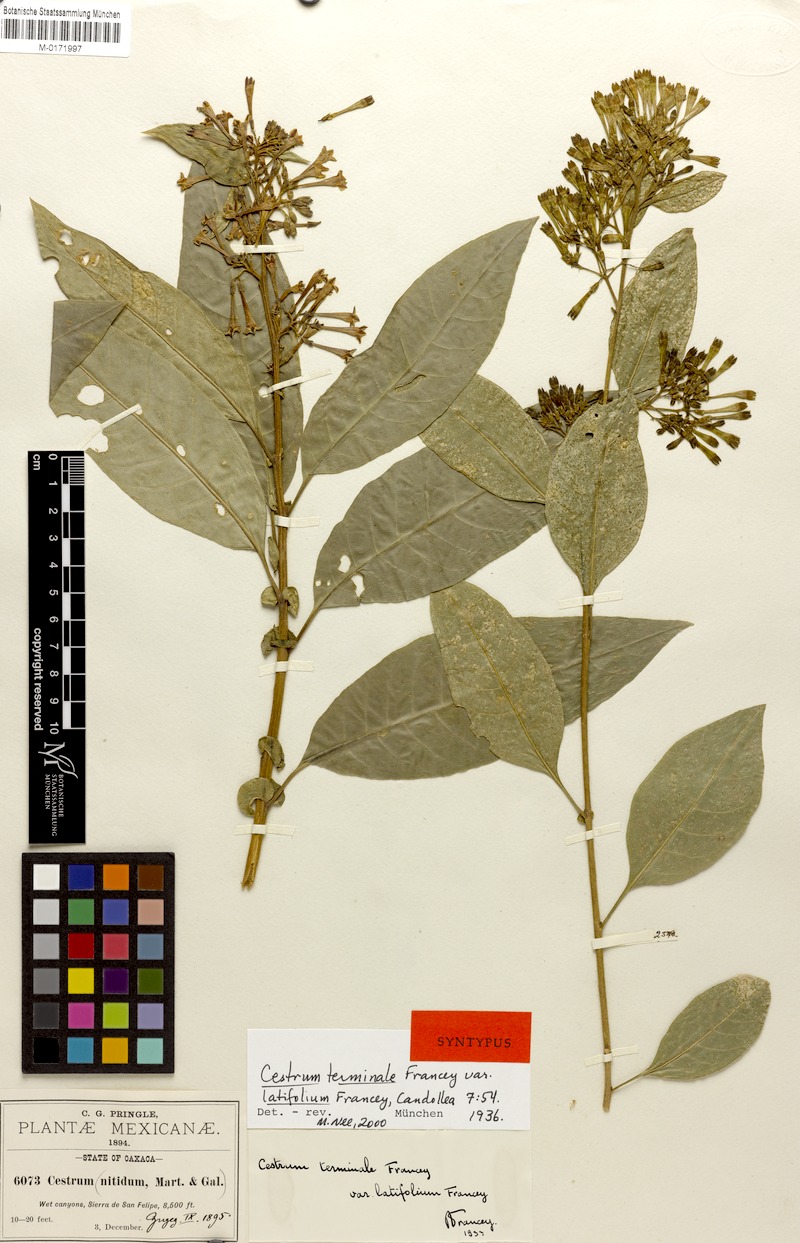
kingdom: Plantae
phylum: Tracheophyta
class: Magnoliopsida
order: Solanales
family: Solanaceae
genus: Cestrum
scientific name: Cestrum nitidum
